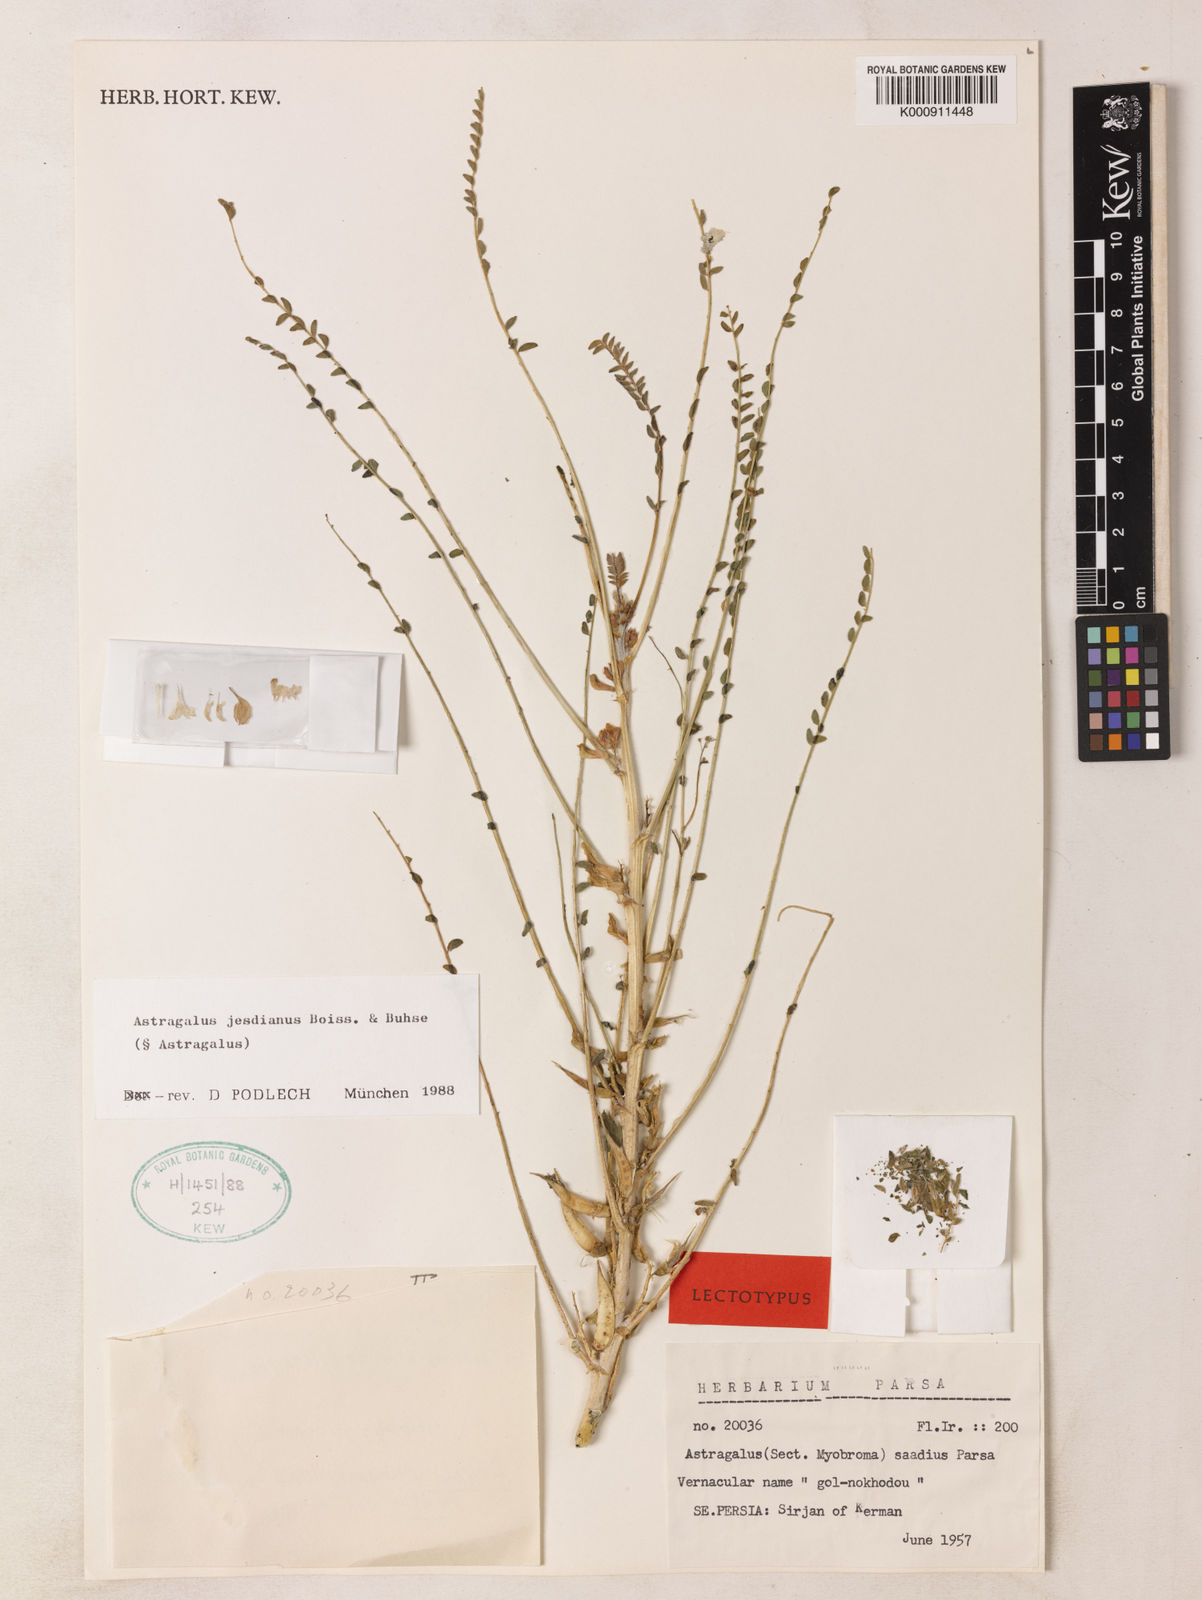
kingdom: Plantae
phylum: Tracheophyta
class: Magnoliopsida
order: Fabales
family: Fabaceae
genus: Astragalus
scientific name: Astragalus jesdianus
